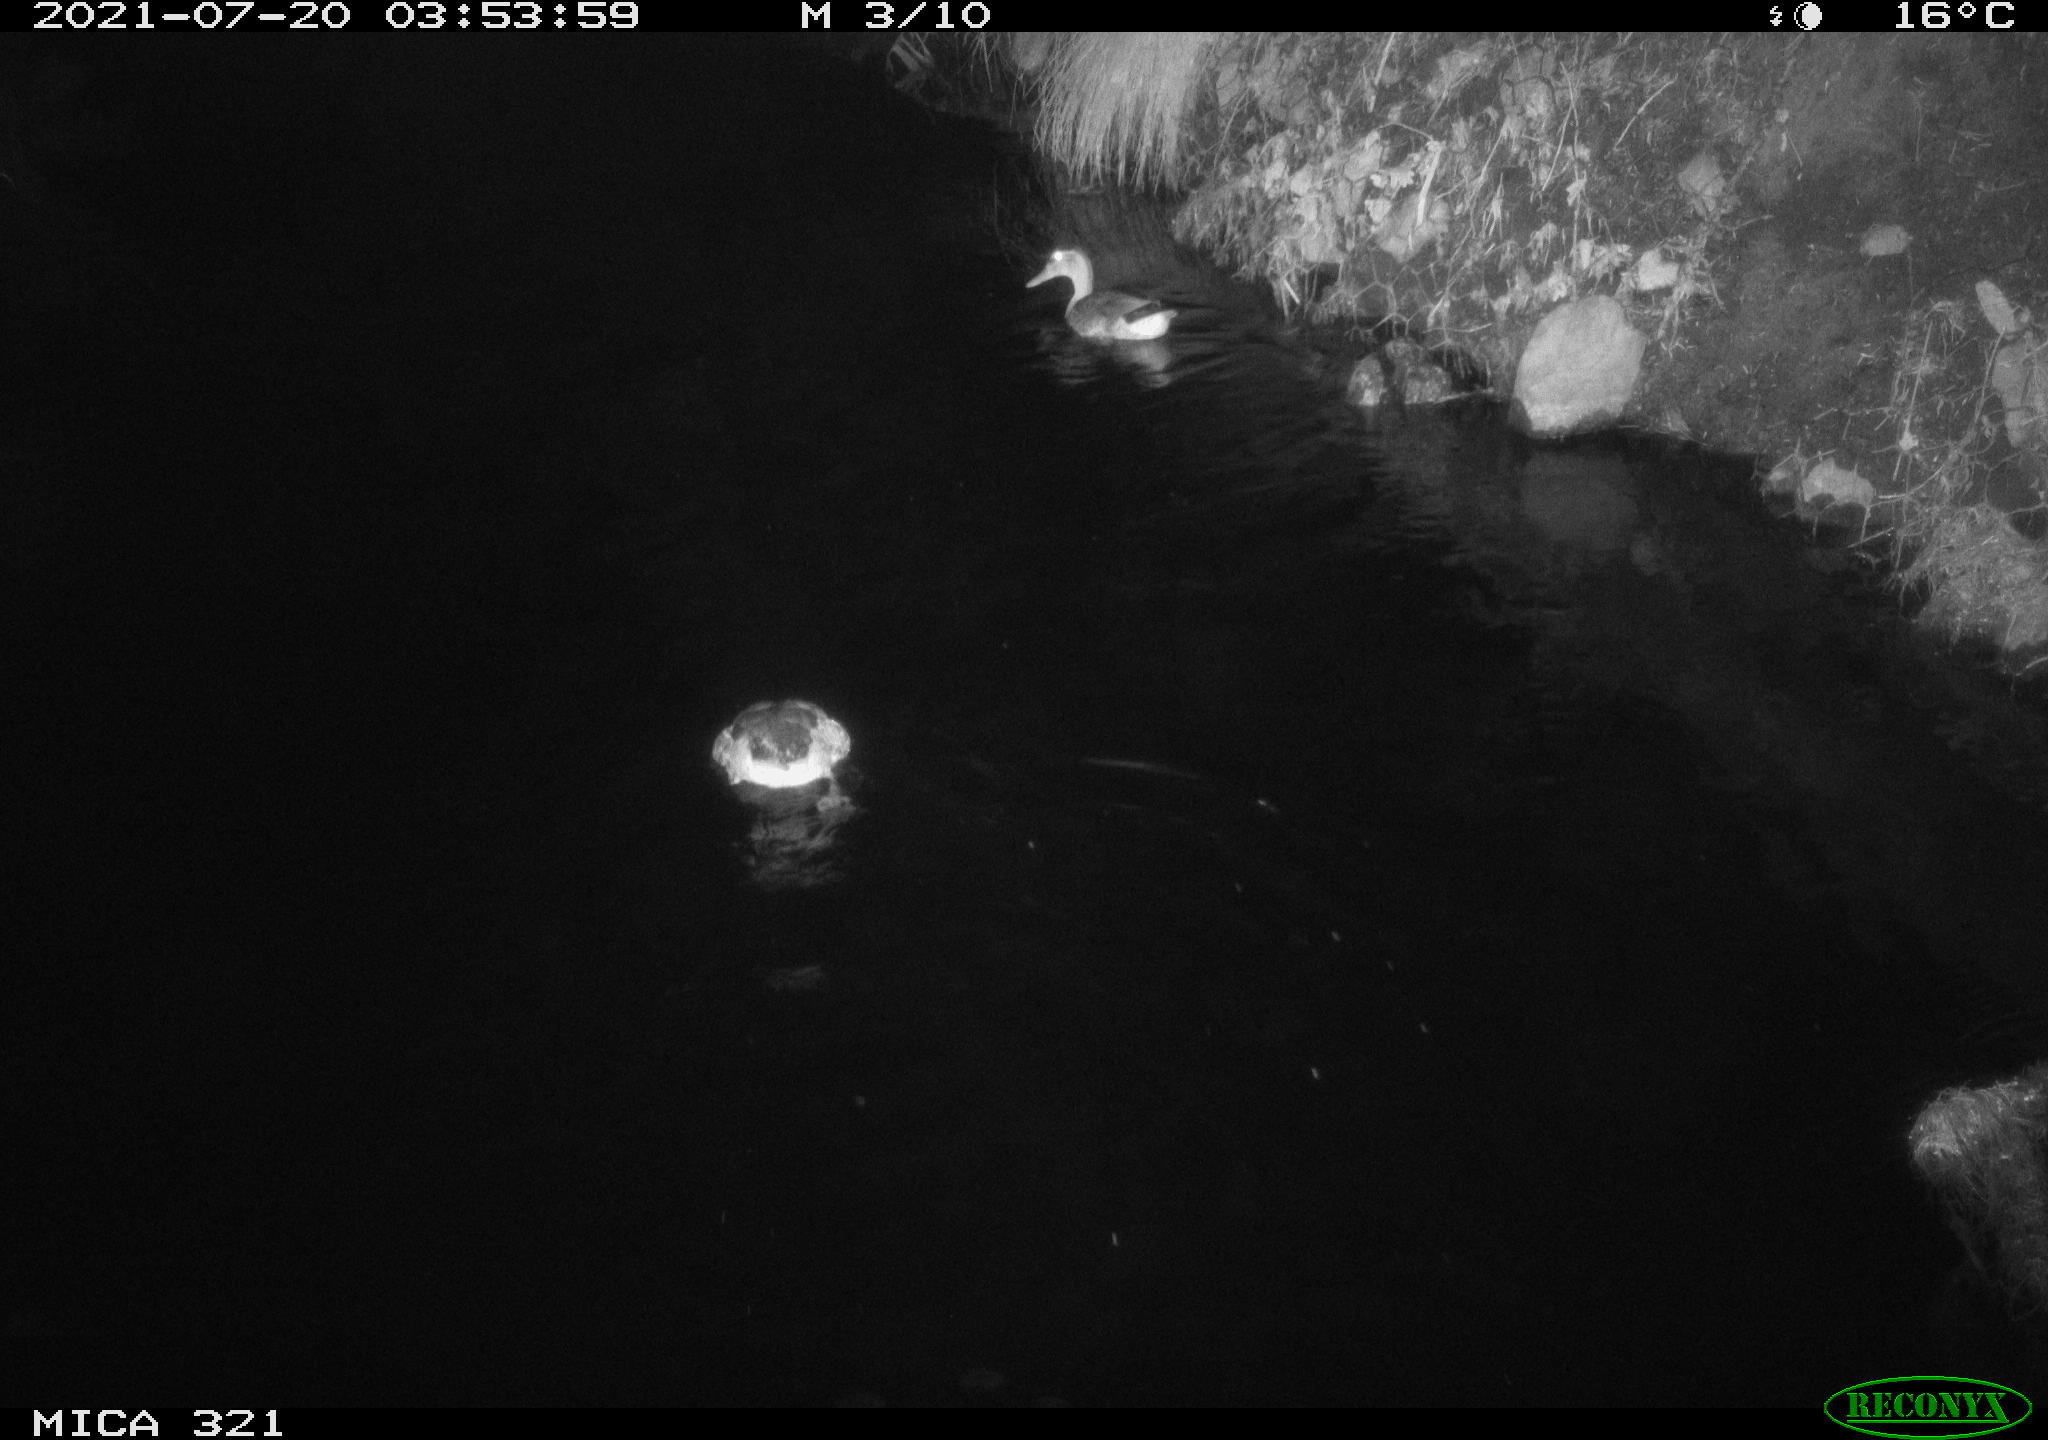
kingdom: Animalia
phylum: Chordata
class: Aves
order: Anseriformes
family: Anatidae
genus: Anas
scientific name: Anas platyrhynchos
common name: Mallard
